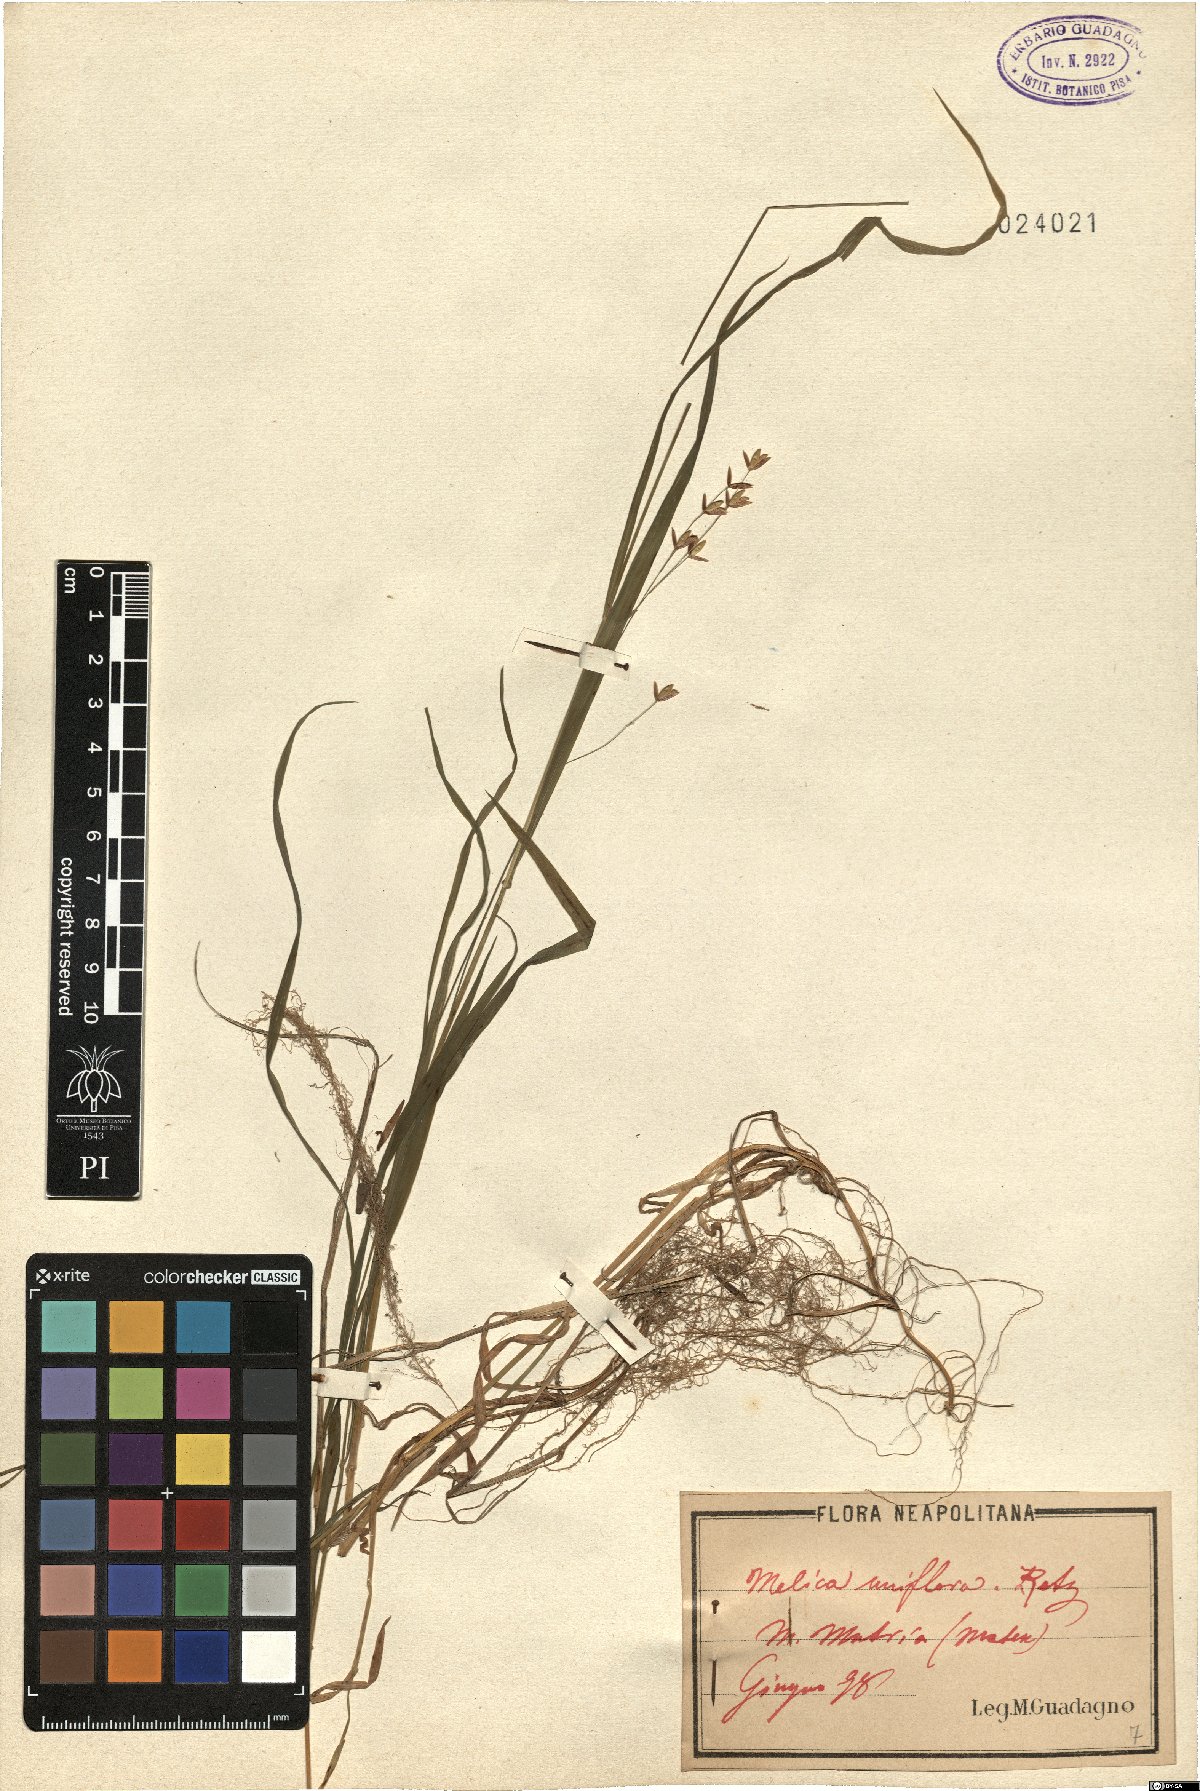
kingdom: Plantae
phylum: Tracheophyta
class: Liliopsida
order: Poales
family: Poaceae
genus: Melica
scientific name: Melica uniflora
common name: Wood melick
